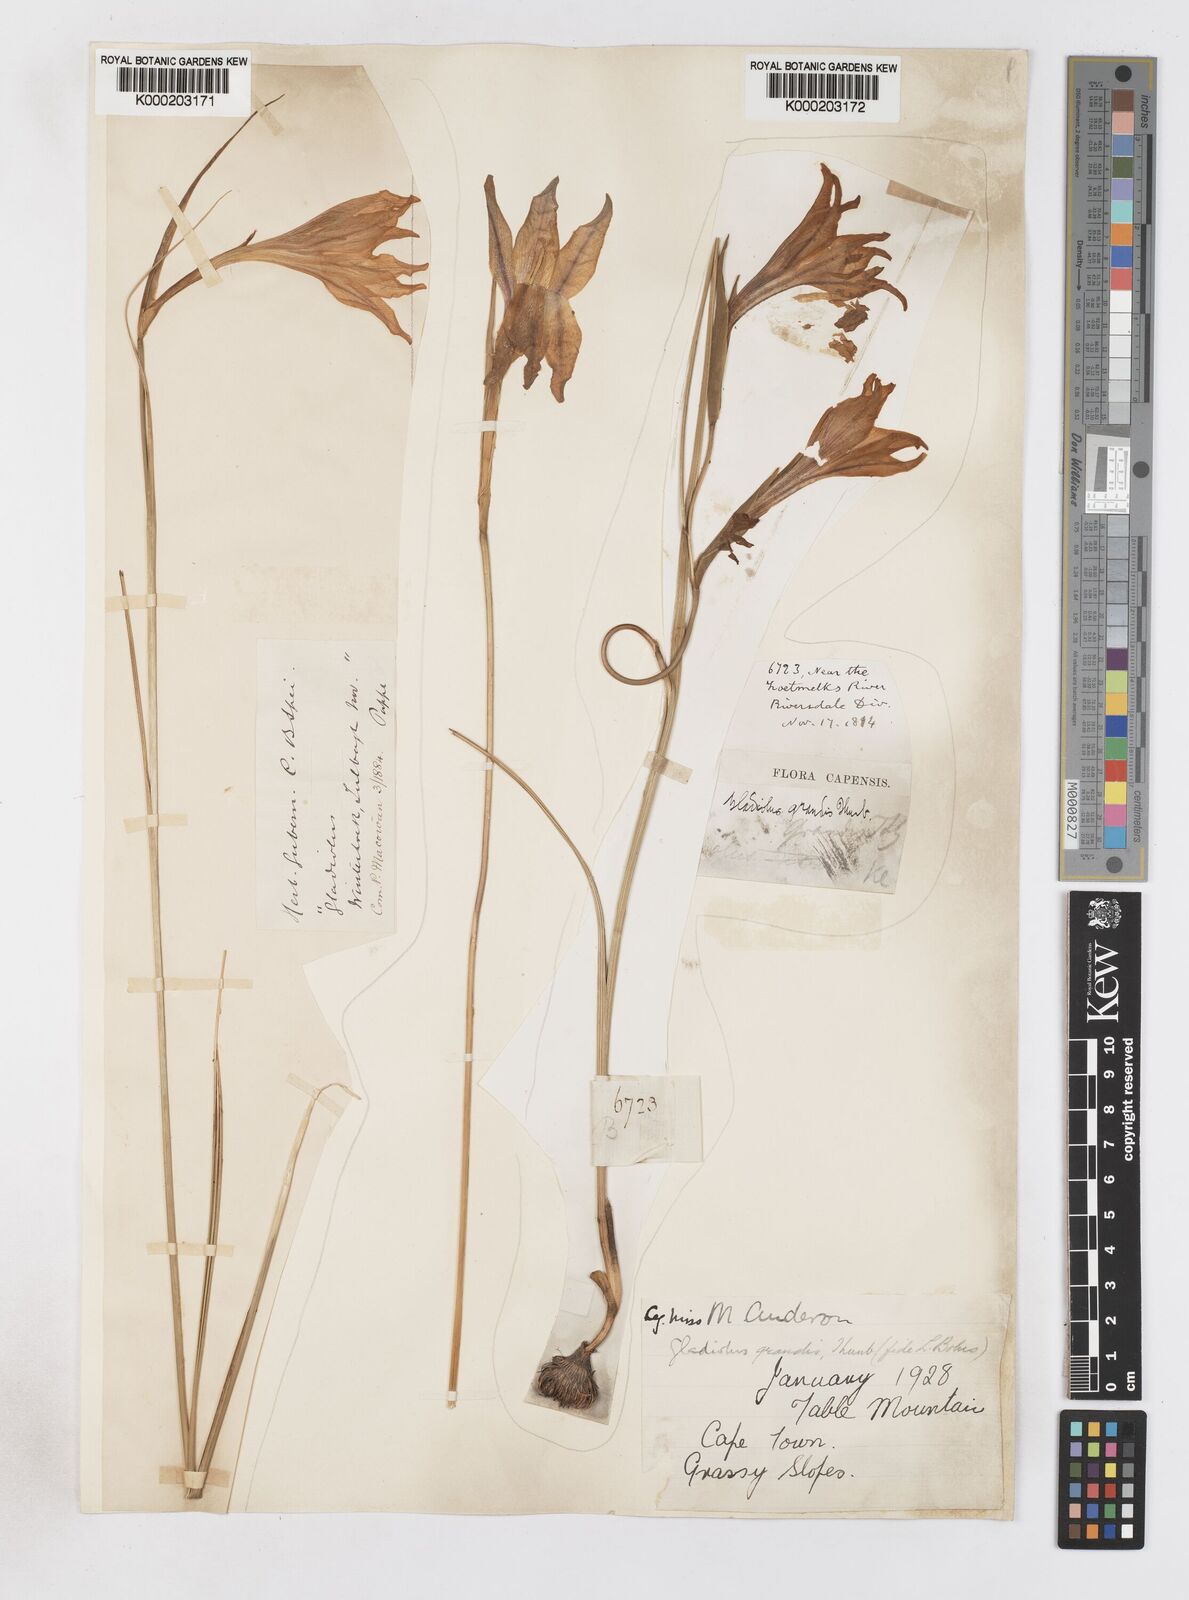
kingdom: Plantae
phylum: Tracheophyta
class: Liliopsida
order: Asparagales
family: Iridaceae
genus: Gladiolus
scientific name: Gladiolus liliaceus
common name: Large brown afrikaner
